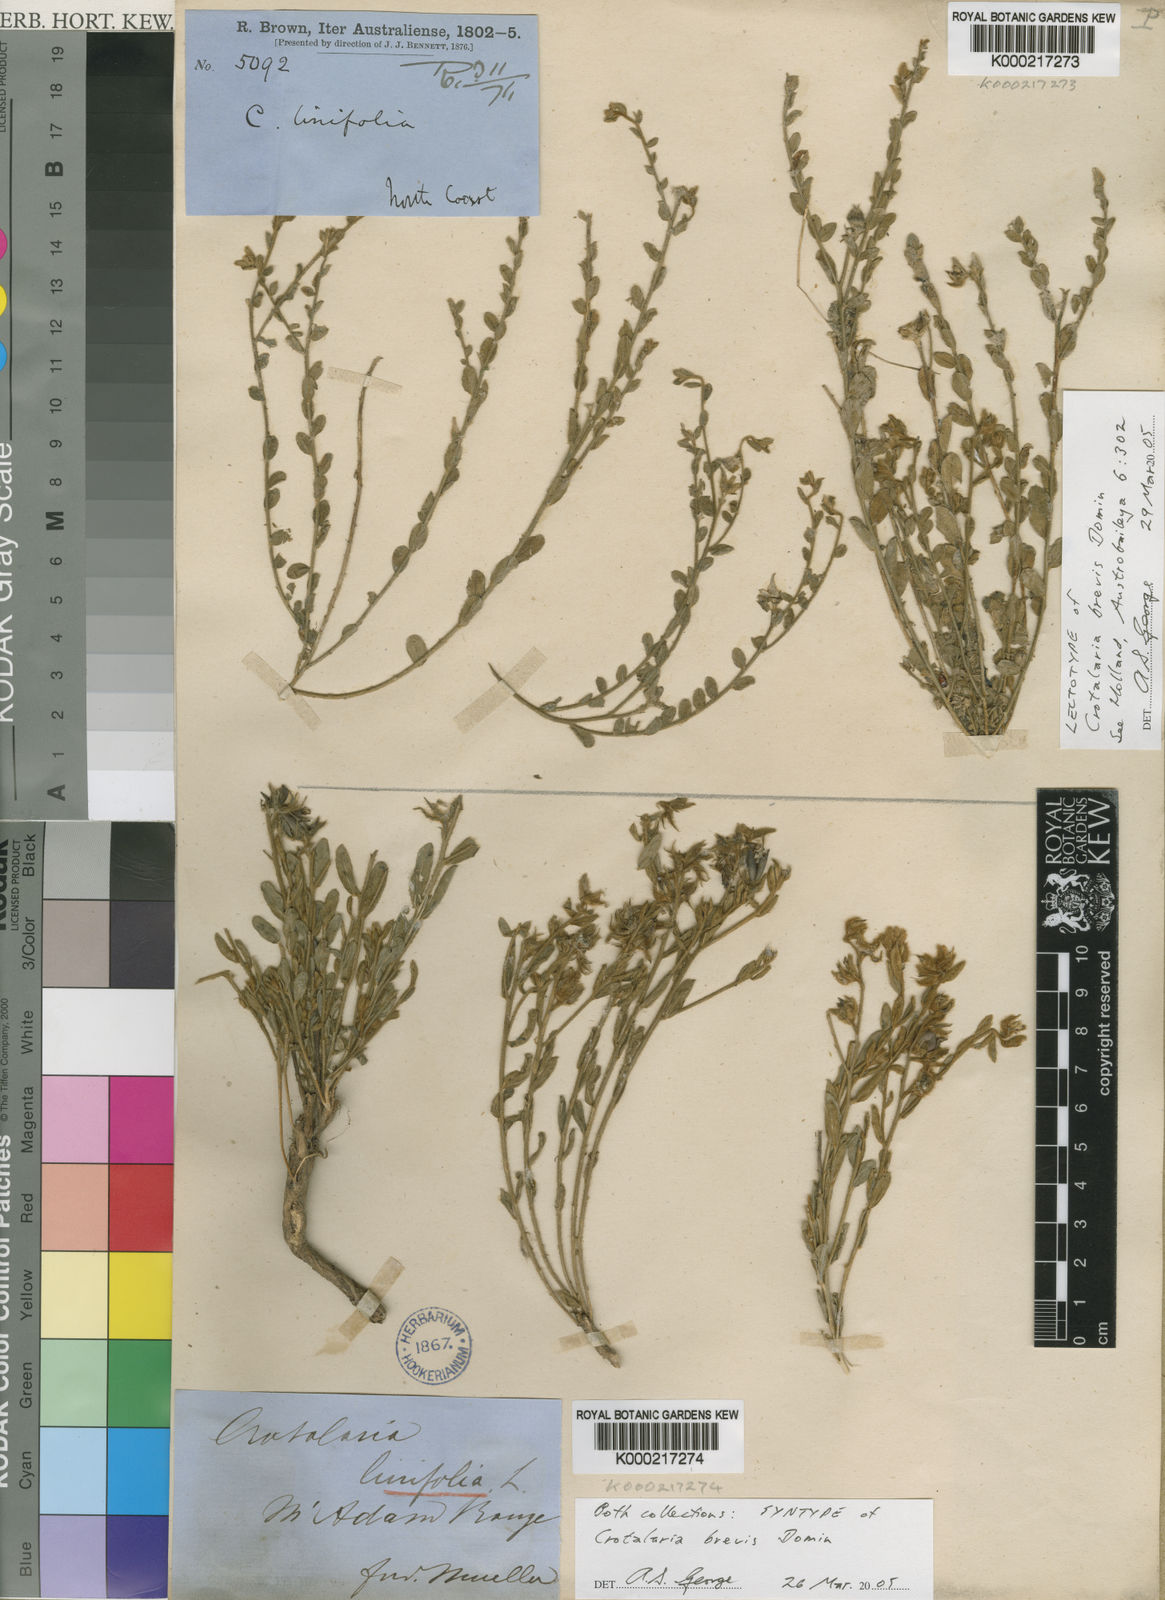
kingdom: Plantae
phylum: Tracheophyta
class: Magnoliopsida
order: Fabales
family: Fabaceae
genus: Crotalaria
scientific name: Crotalaria brevis
